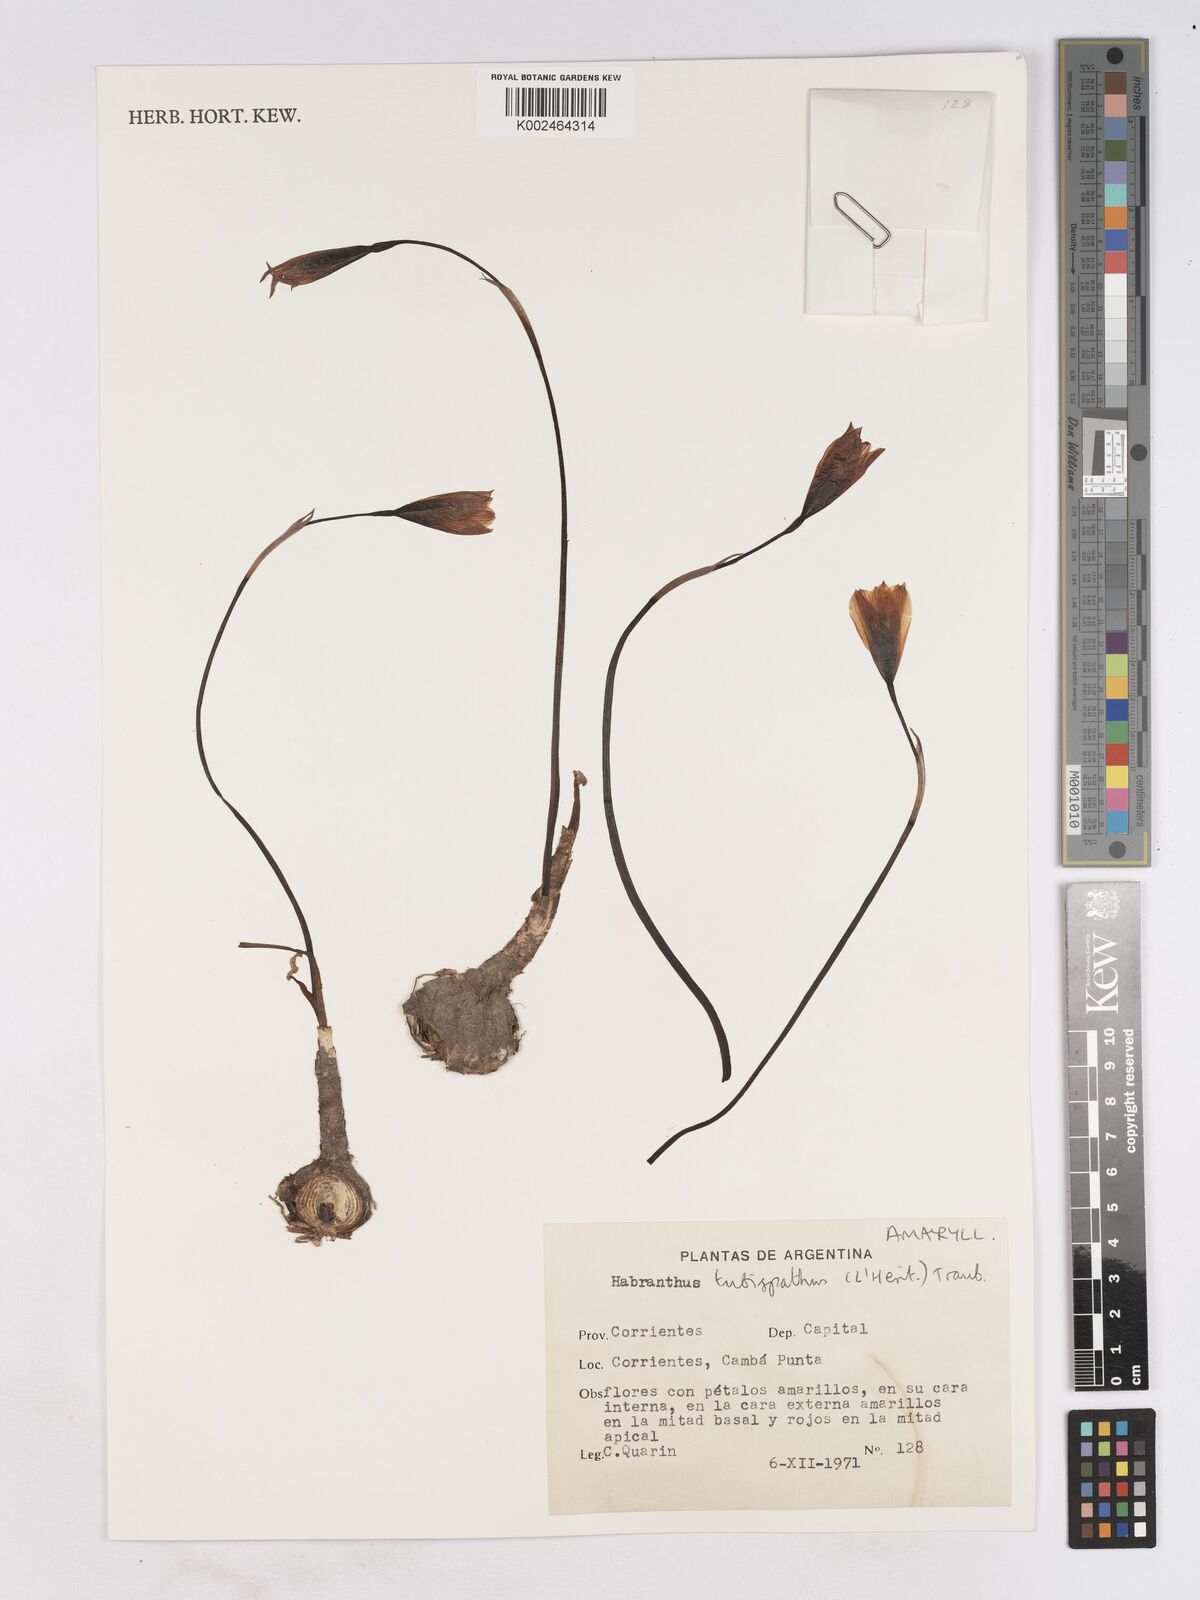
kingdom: Plantae
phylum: Tracheophyta
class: Liliopsida
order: Asparagales
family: Amaryllidaceae
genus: Zephyranthes
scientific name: Zephyranthes tubispatha
